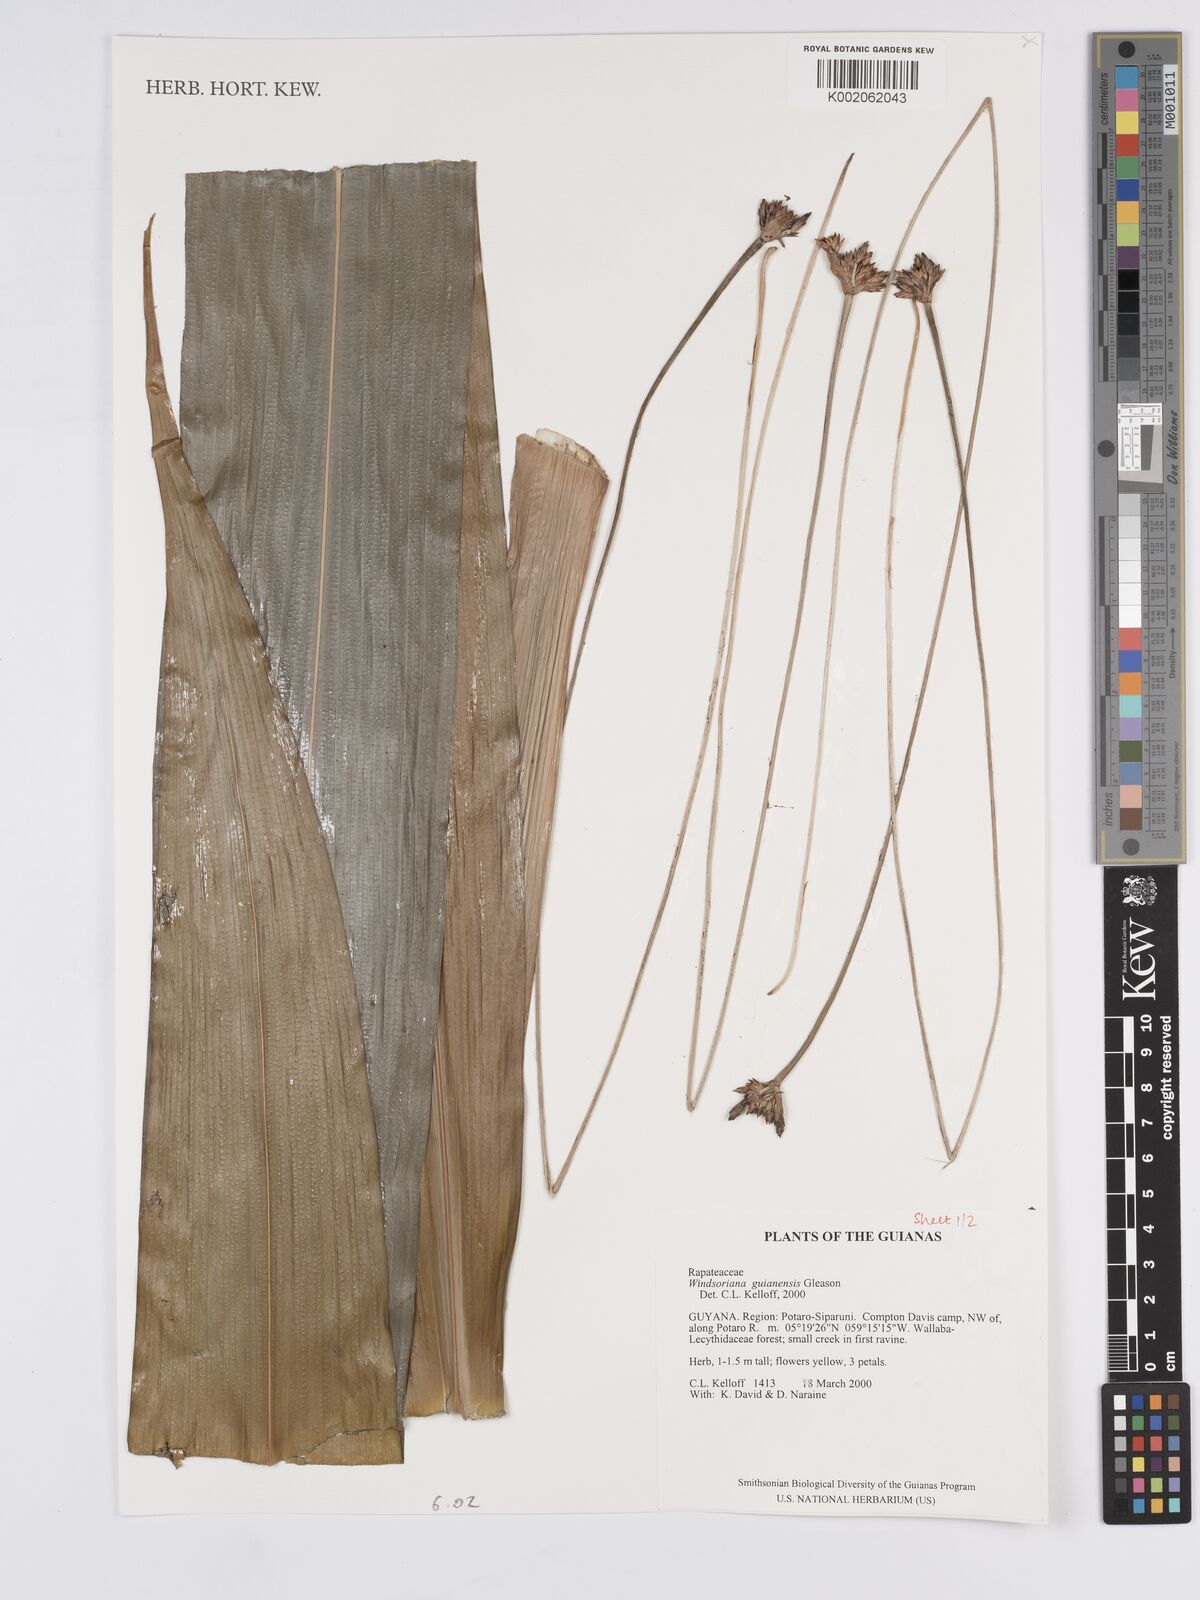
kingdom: Plantae
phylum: Tracheophyta
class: Liliopsida
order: Poales
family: Rapateaceae
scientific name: Rapateaceae
